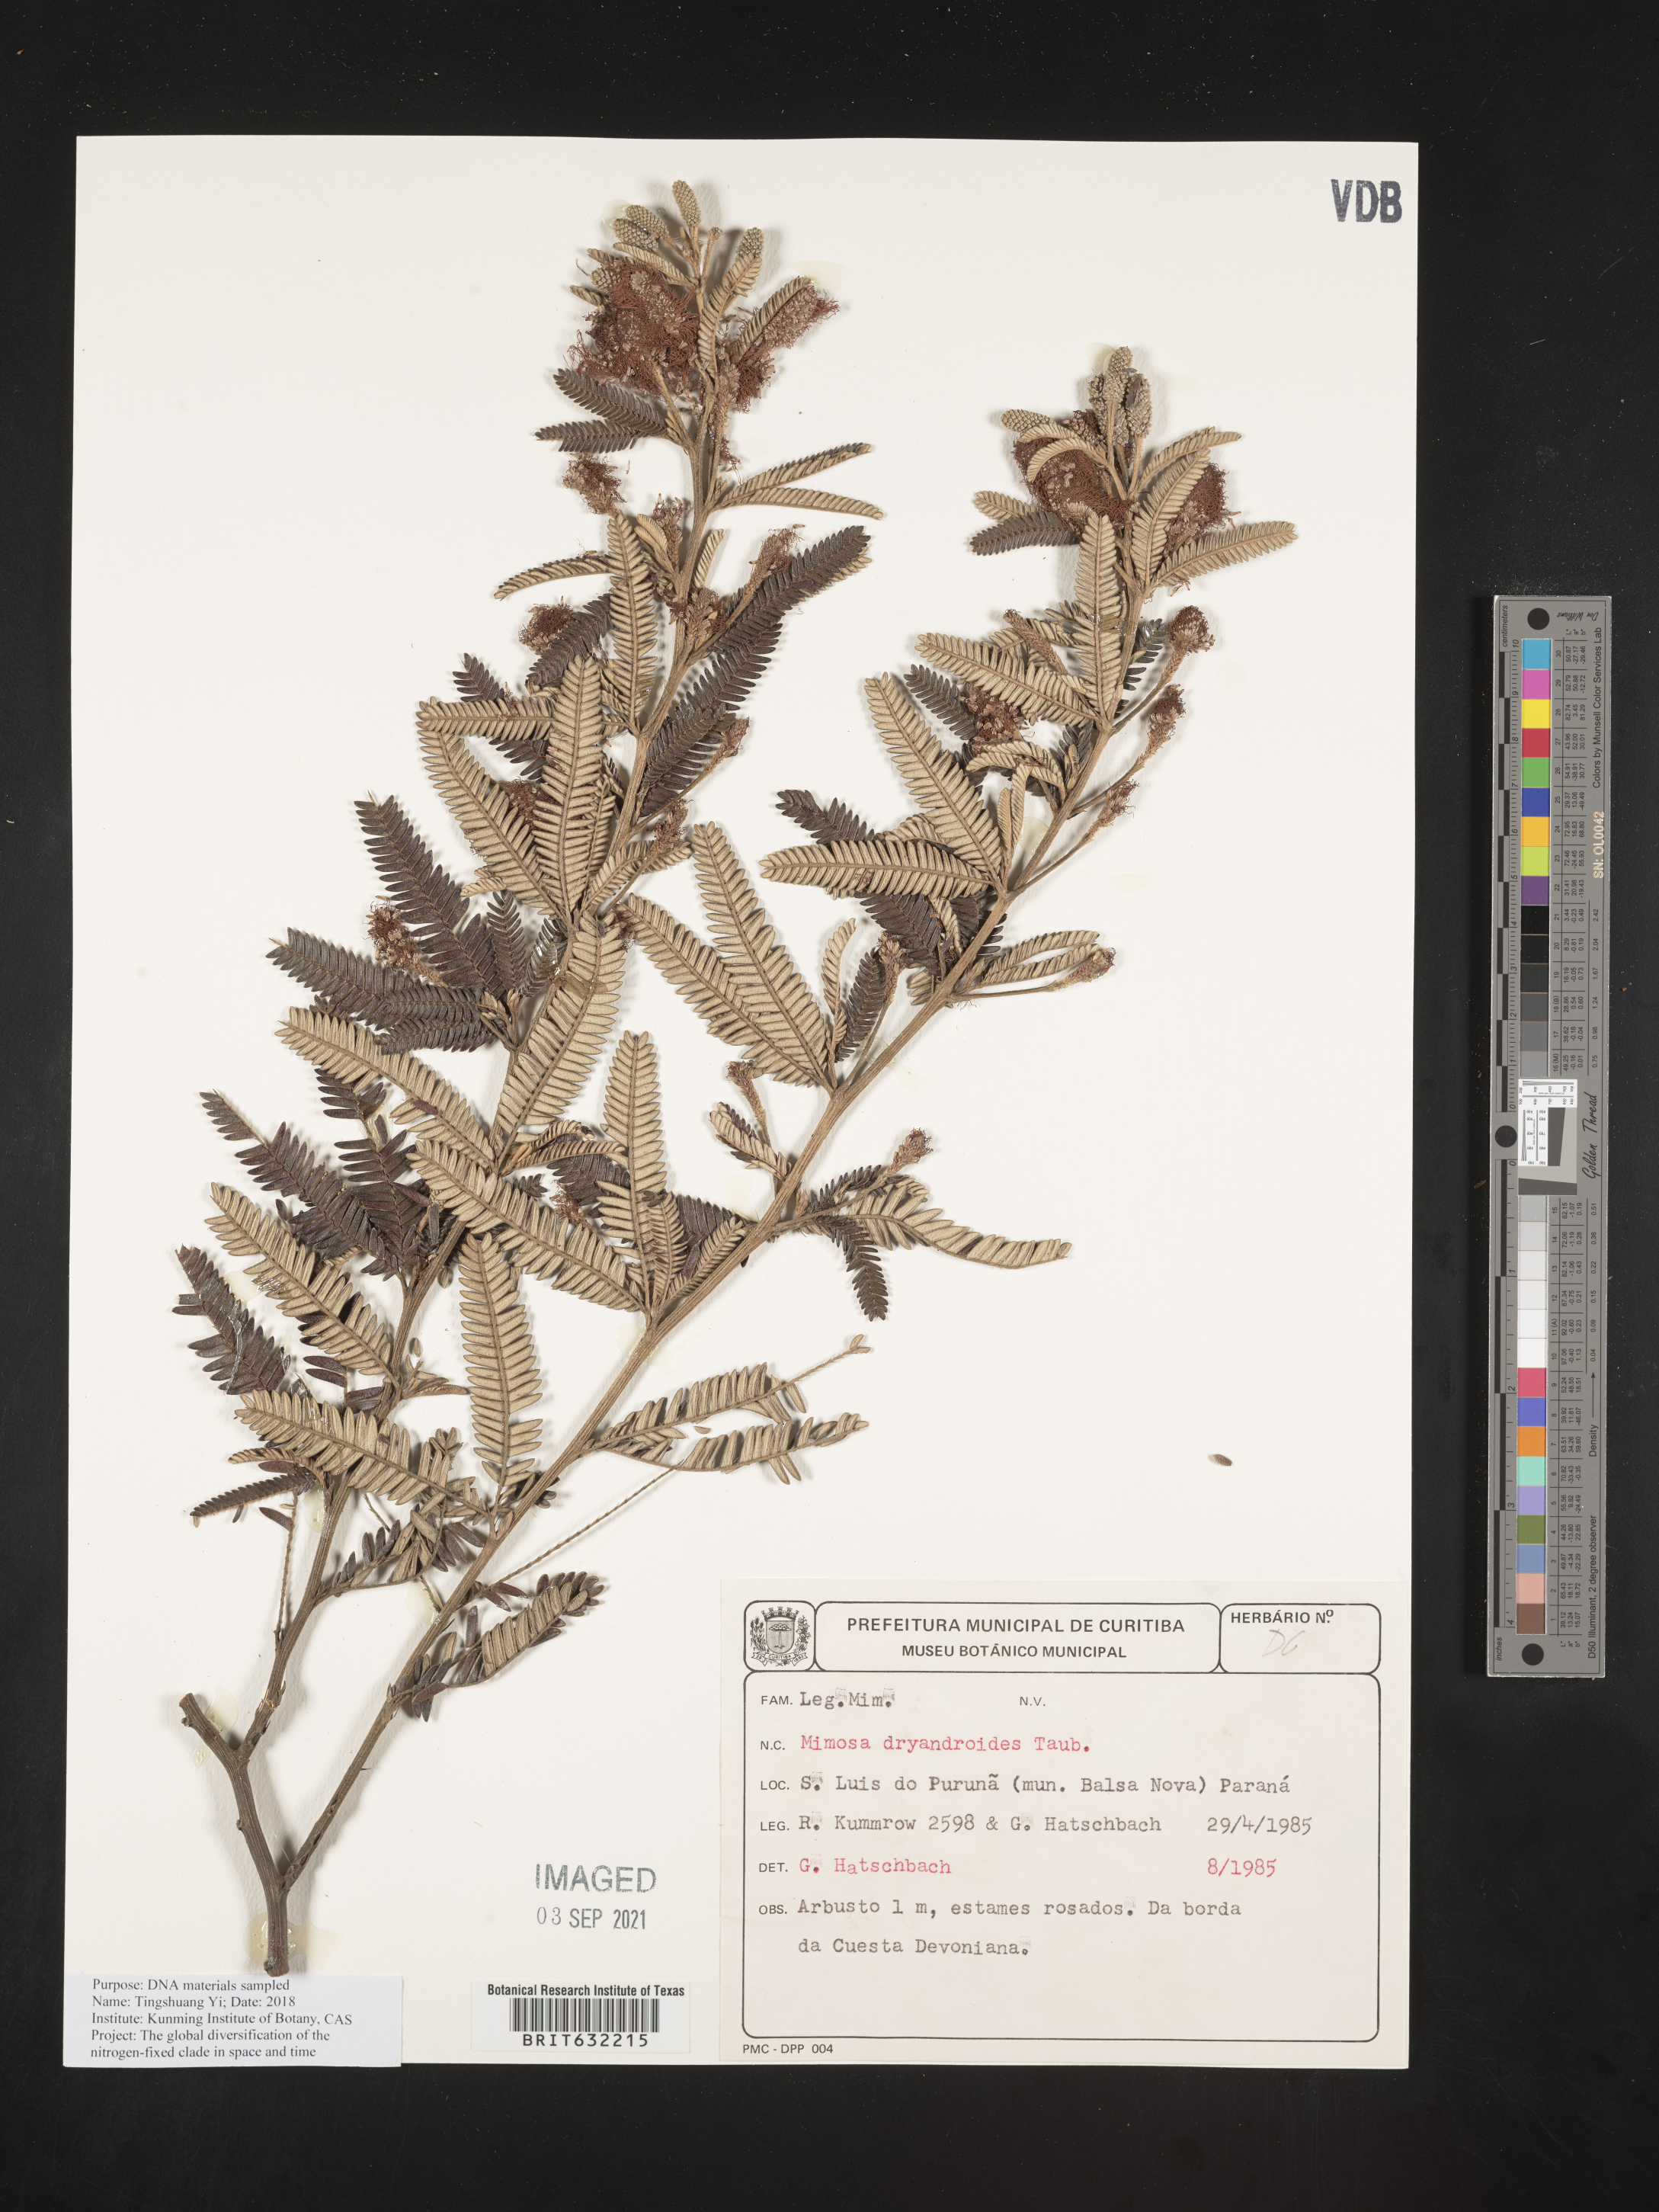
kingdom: Plantae
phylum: Tracheophyta
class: Magnoliopsida
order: Fabales
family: Fabaceae
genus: Mimosa
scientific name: Mimosa
